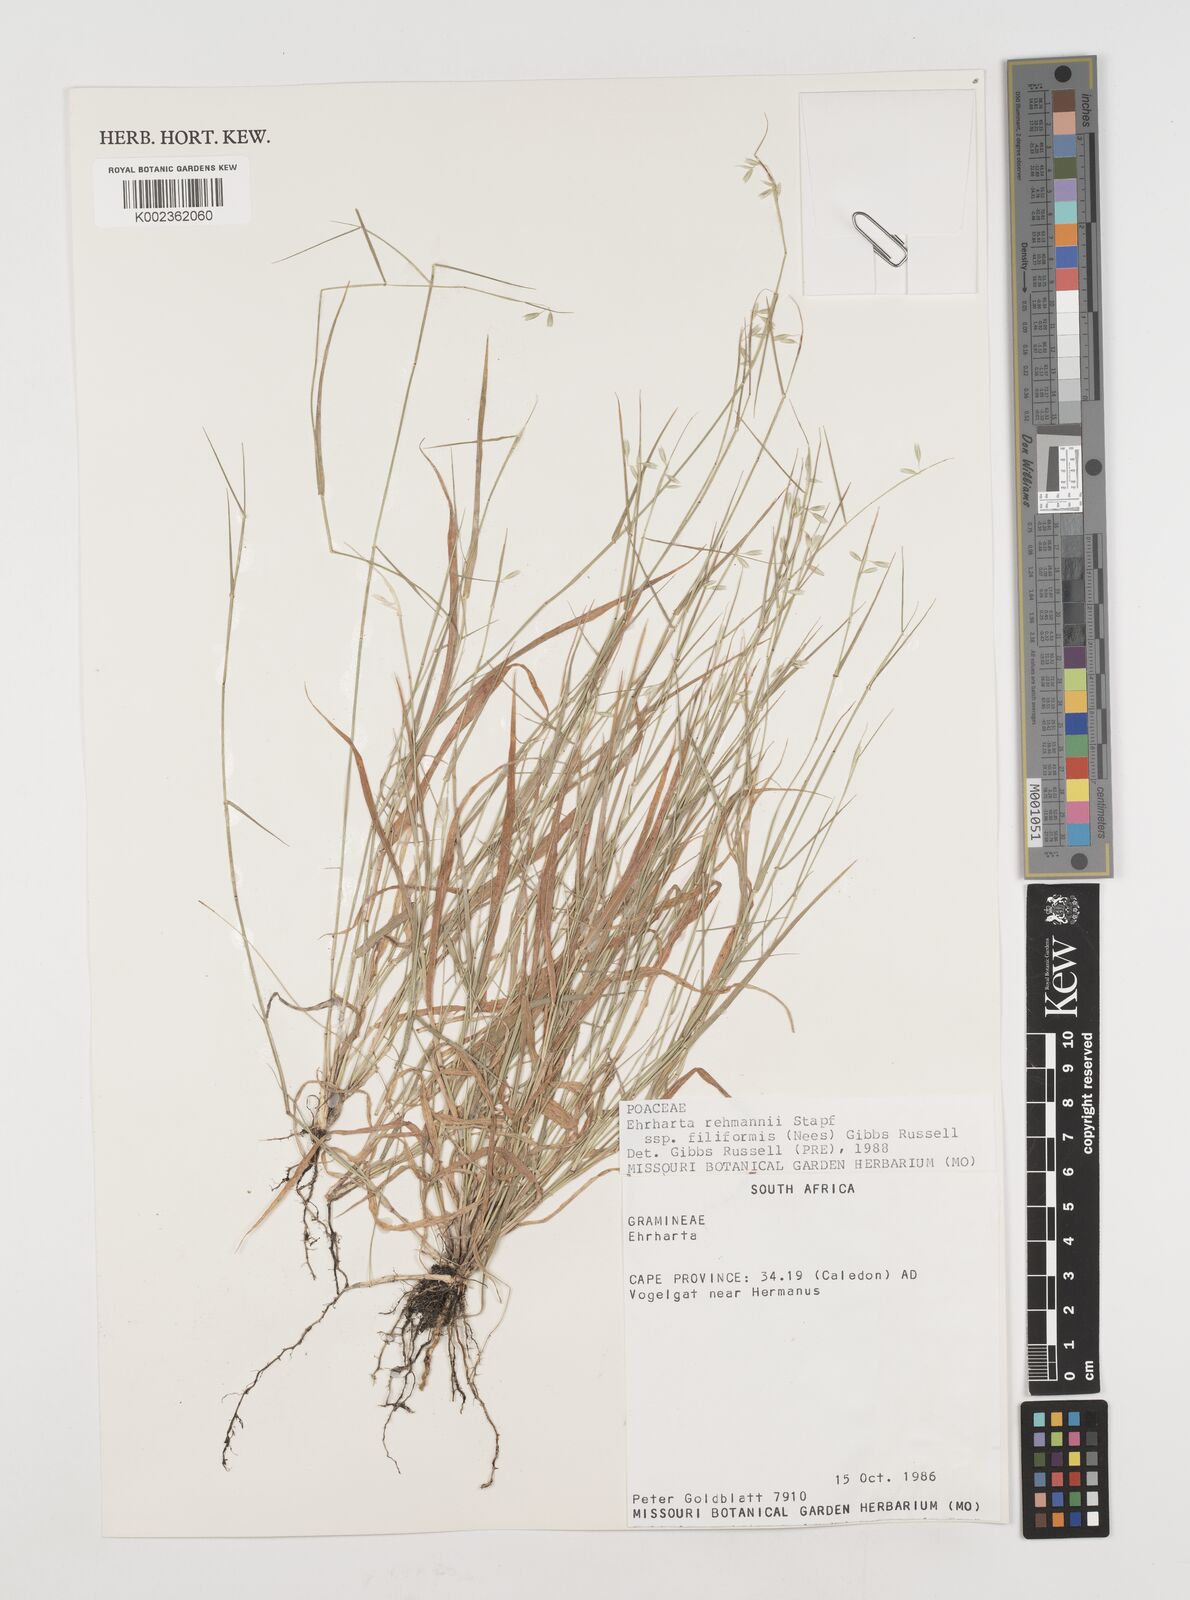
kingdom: Plantae
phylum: Tracheophyta
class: Liliopsida
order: Poales
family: Poaceae
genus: Ehrharta
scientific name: Ehrharta rehmannii
